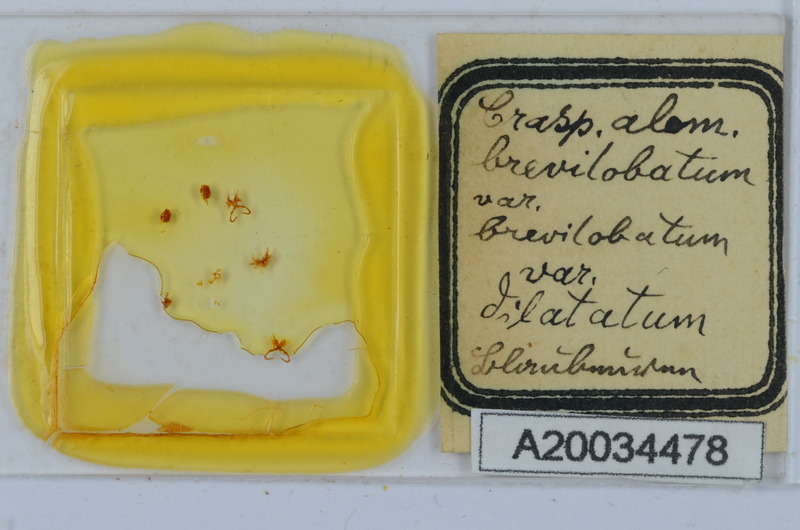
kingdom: Animalia
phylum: Arthropoda
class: Diplopoda
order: Chordeumatida
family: Craspedosomatidae
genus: Craspedosoma
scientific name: Craspedosoma rawlinsii
